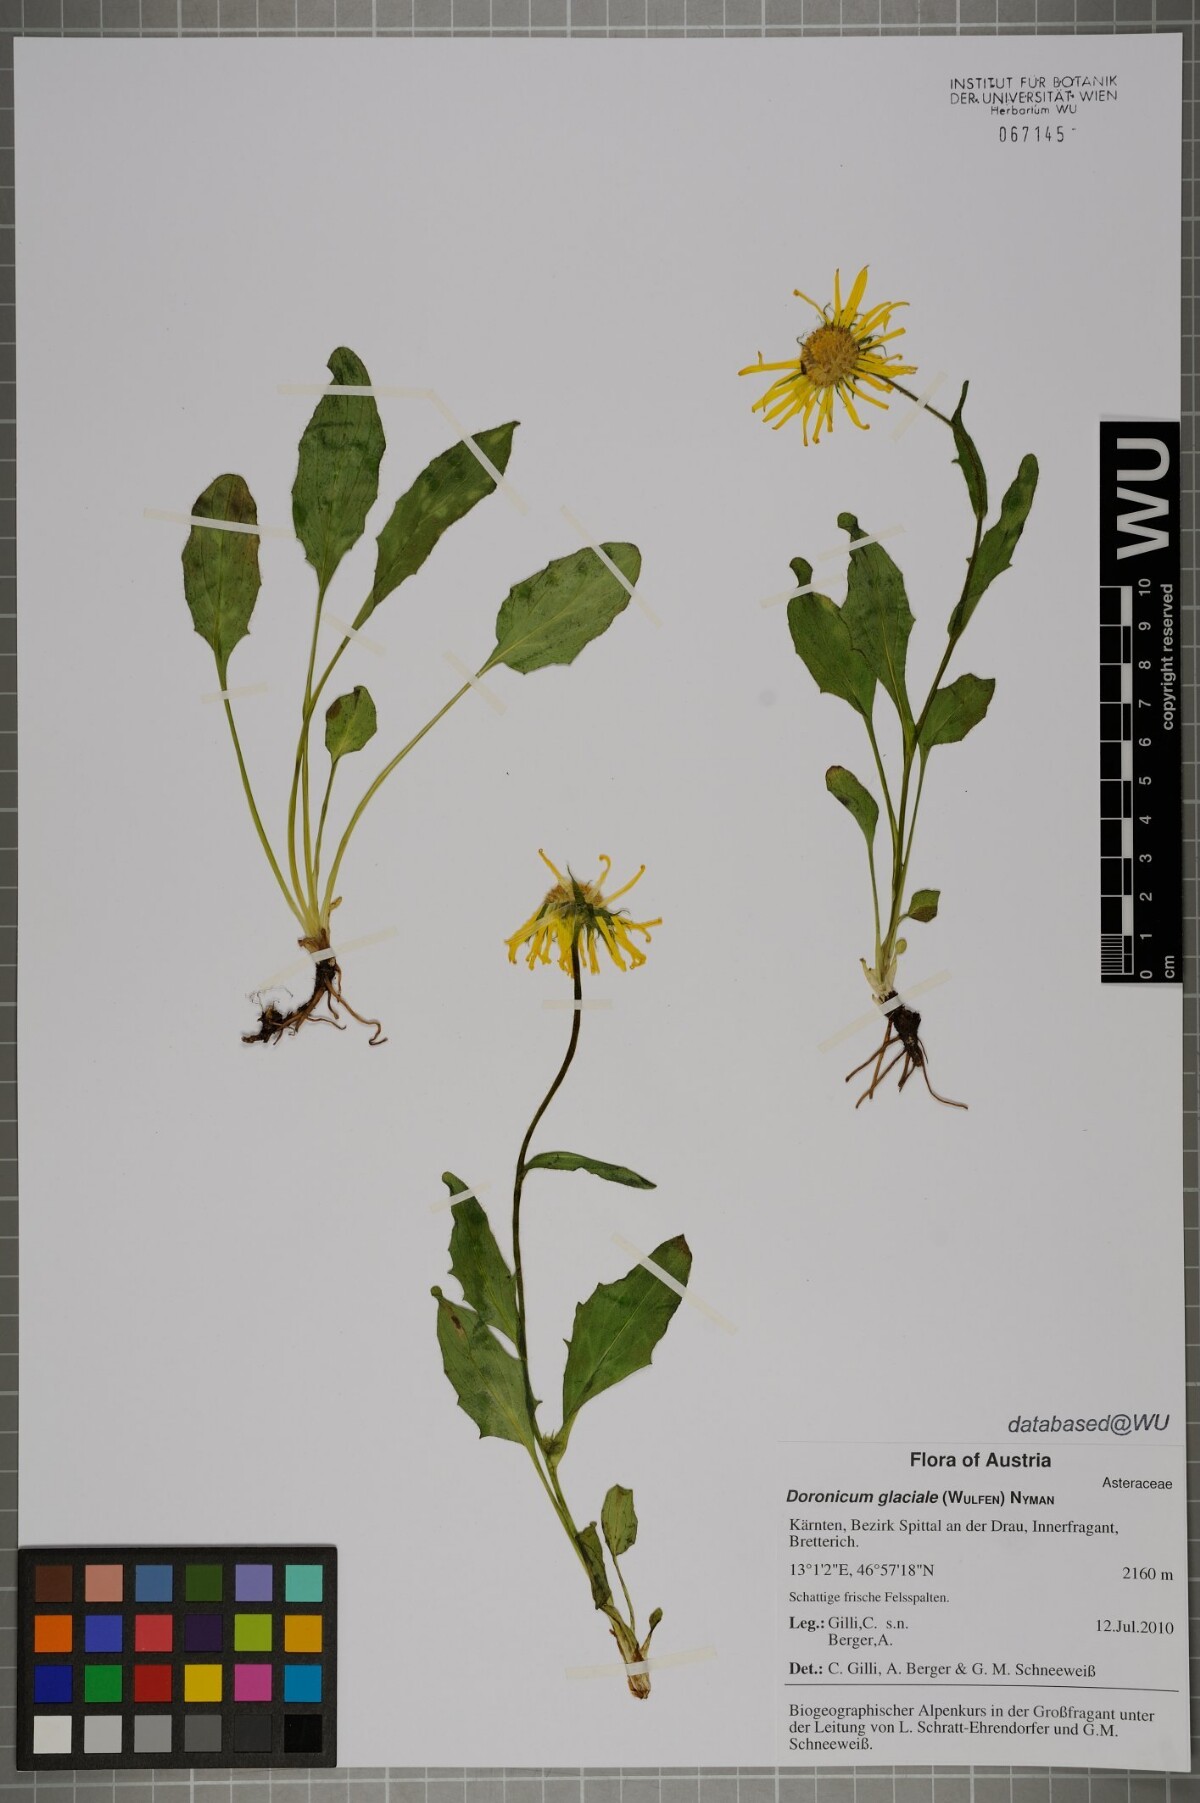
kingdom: Plantae
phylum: Tracheophyta
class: Magnoliopsida
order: Asterales
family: Asteraceae
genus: Doronicum
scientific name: Doronicum glaciale
